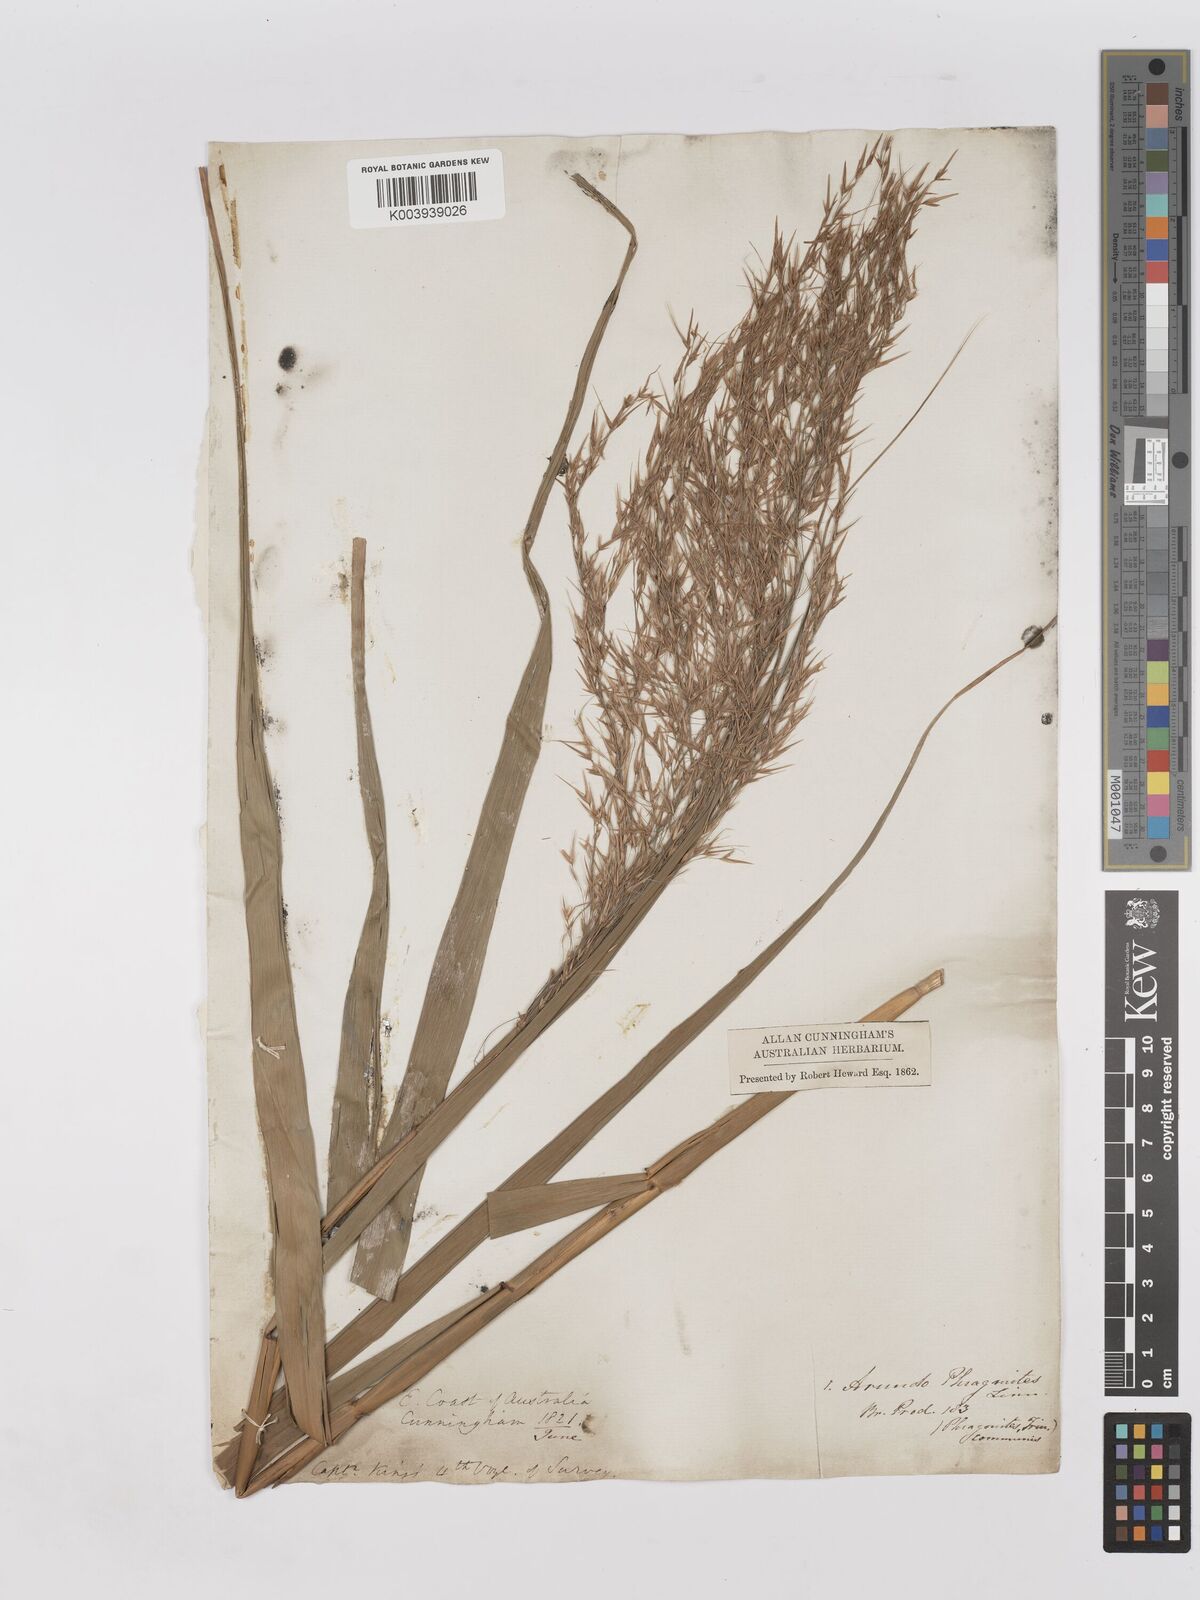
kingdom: Plantae
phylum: Tracheophyta
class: Liliopsida
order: Poales
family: Poaceae
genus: Phragmites
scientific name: Phragmites australis
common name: Common reed
